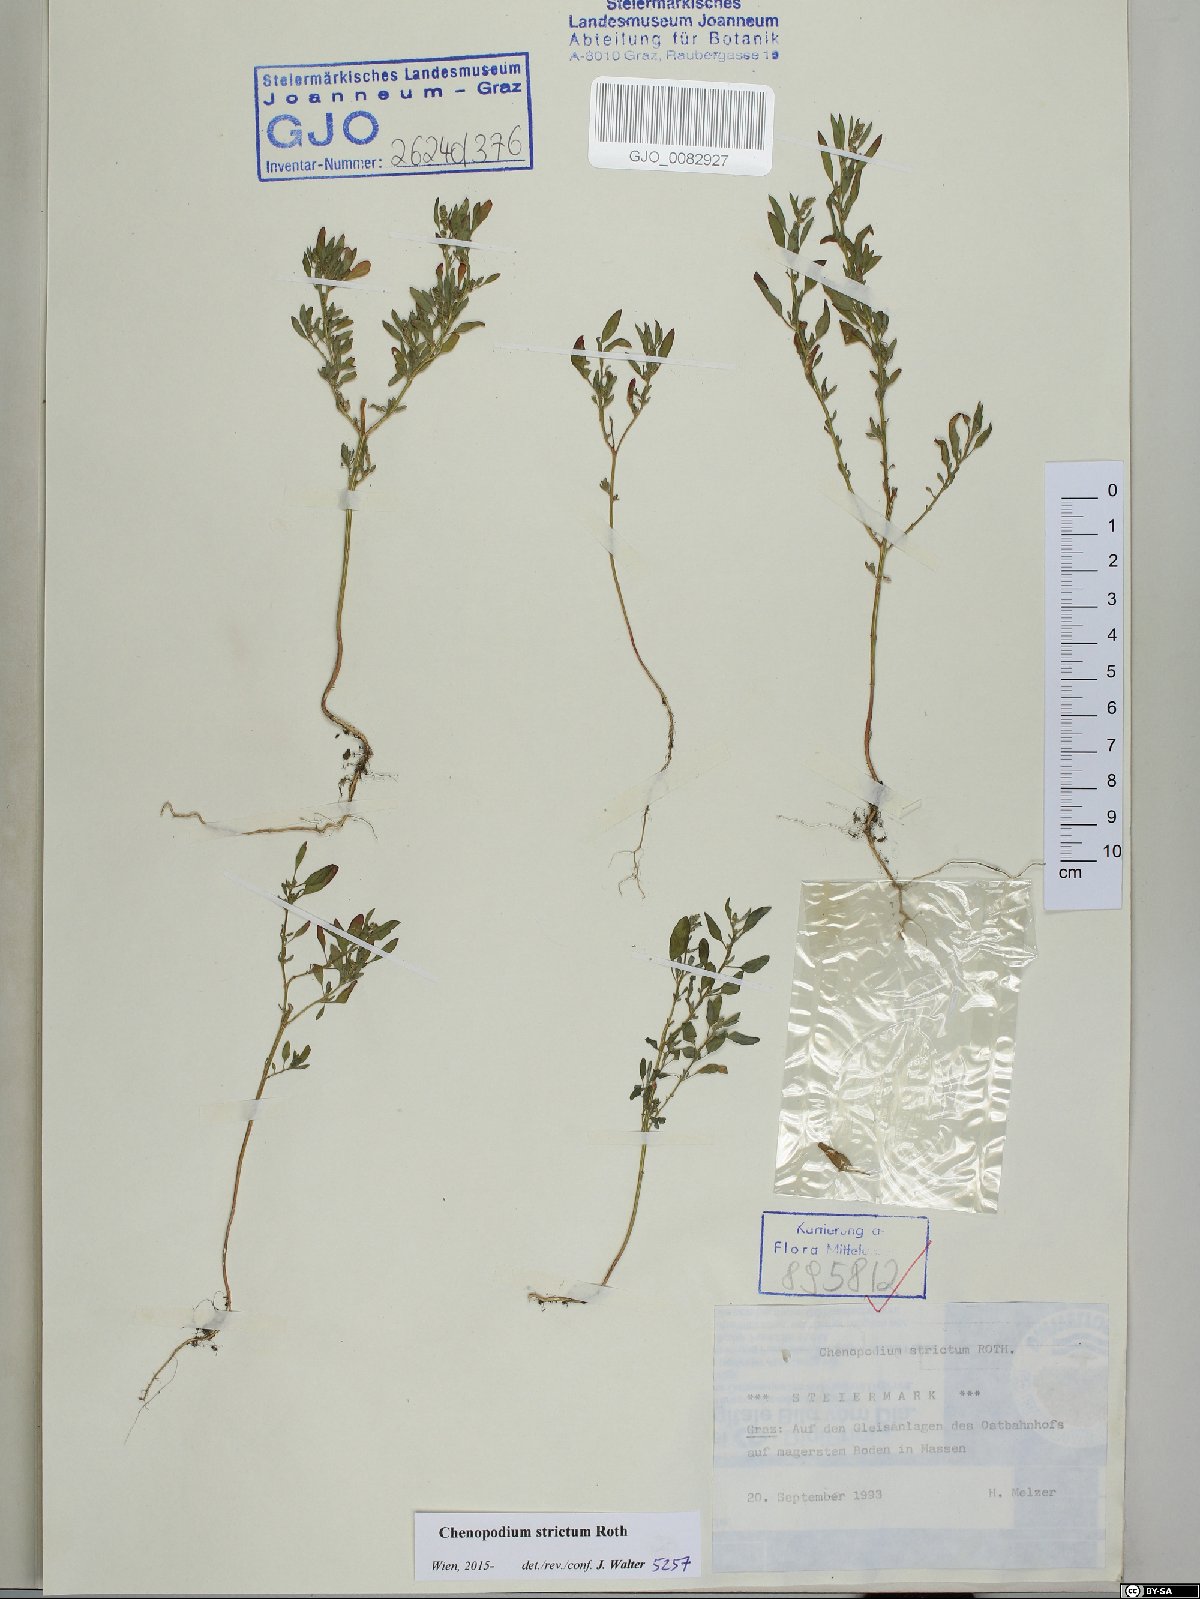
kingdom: Plantae
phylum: Tracheophyta
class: Magnoliopsida
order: Caryophyllales
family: Amaranthaceae
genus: Chenopodium
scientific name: Chenopodium album
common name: Fat-hen
